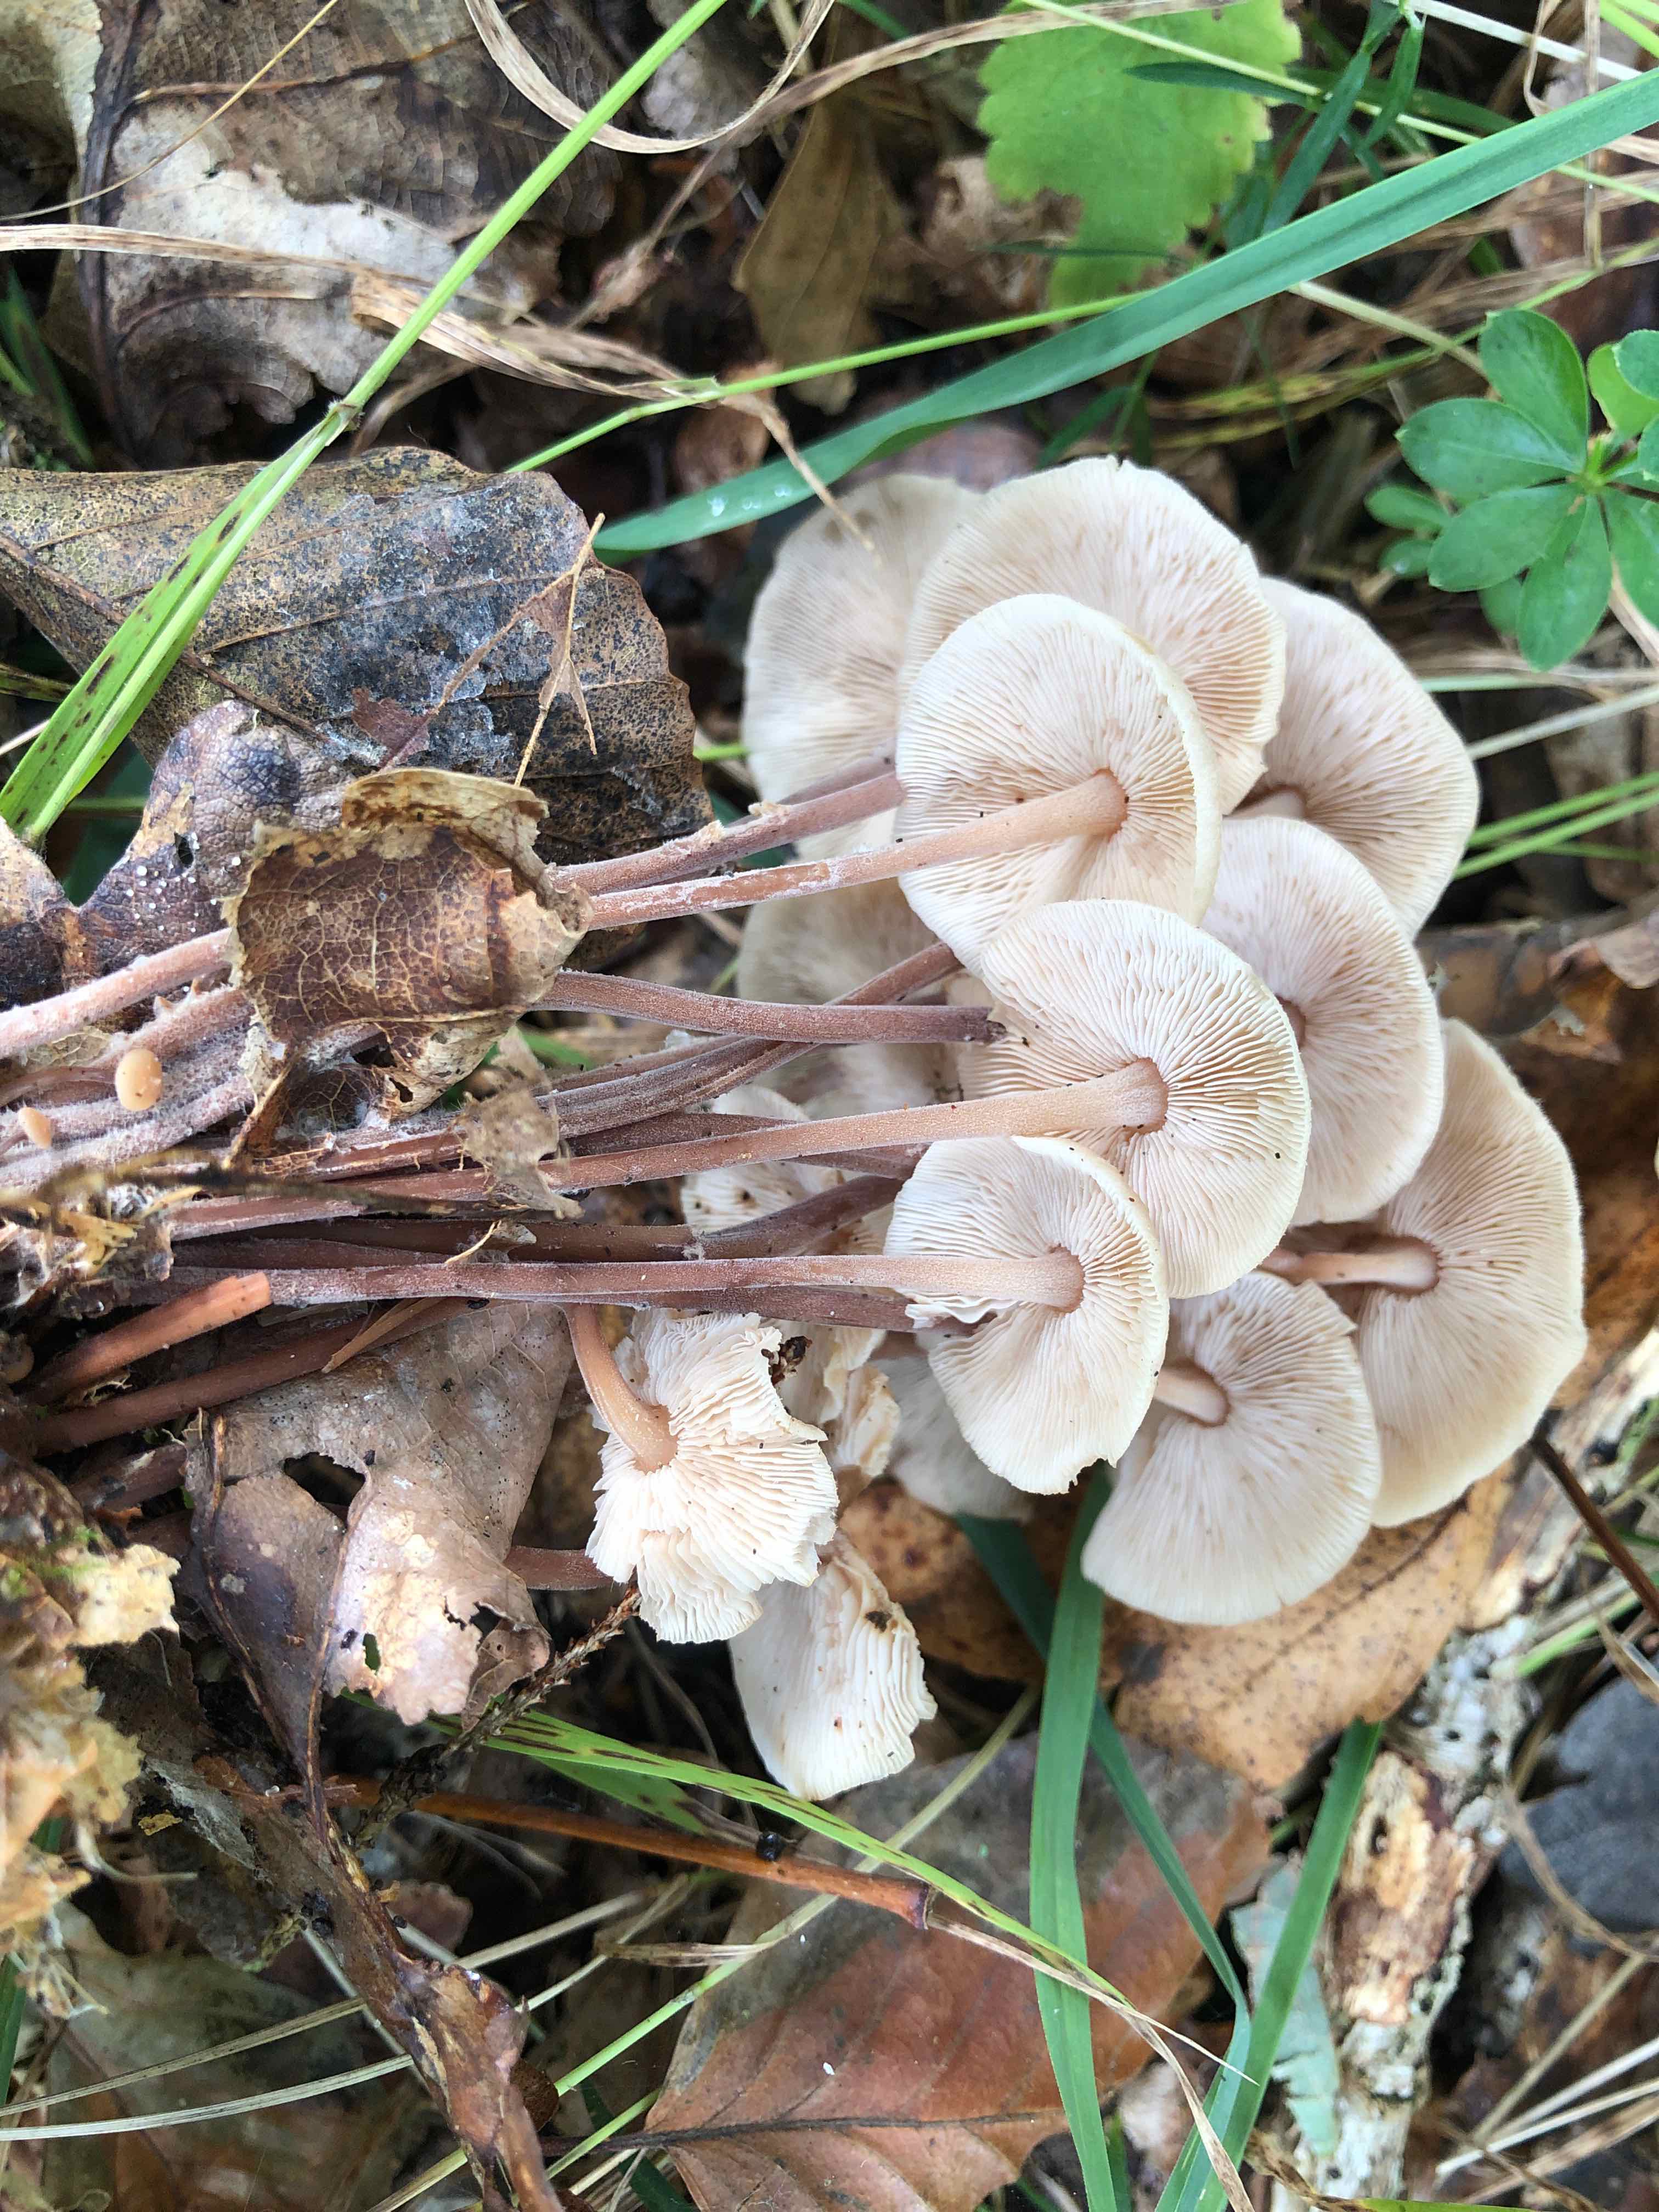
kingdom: Fungi
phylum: Basidiomycota
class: Agaricomycetes
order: Agaricales
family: Omphalotaceae
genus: Collybiopsis
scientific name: Collybiopsis confluens
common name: knippe-fladhat
